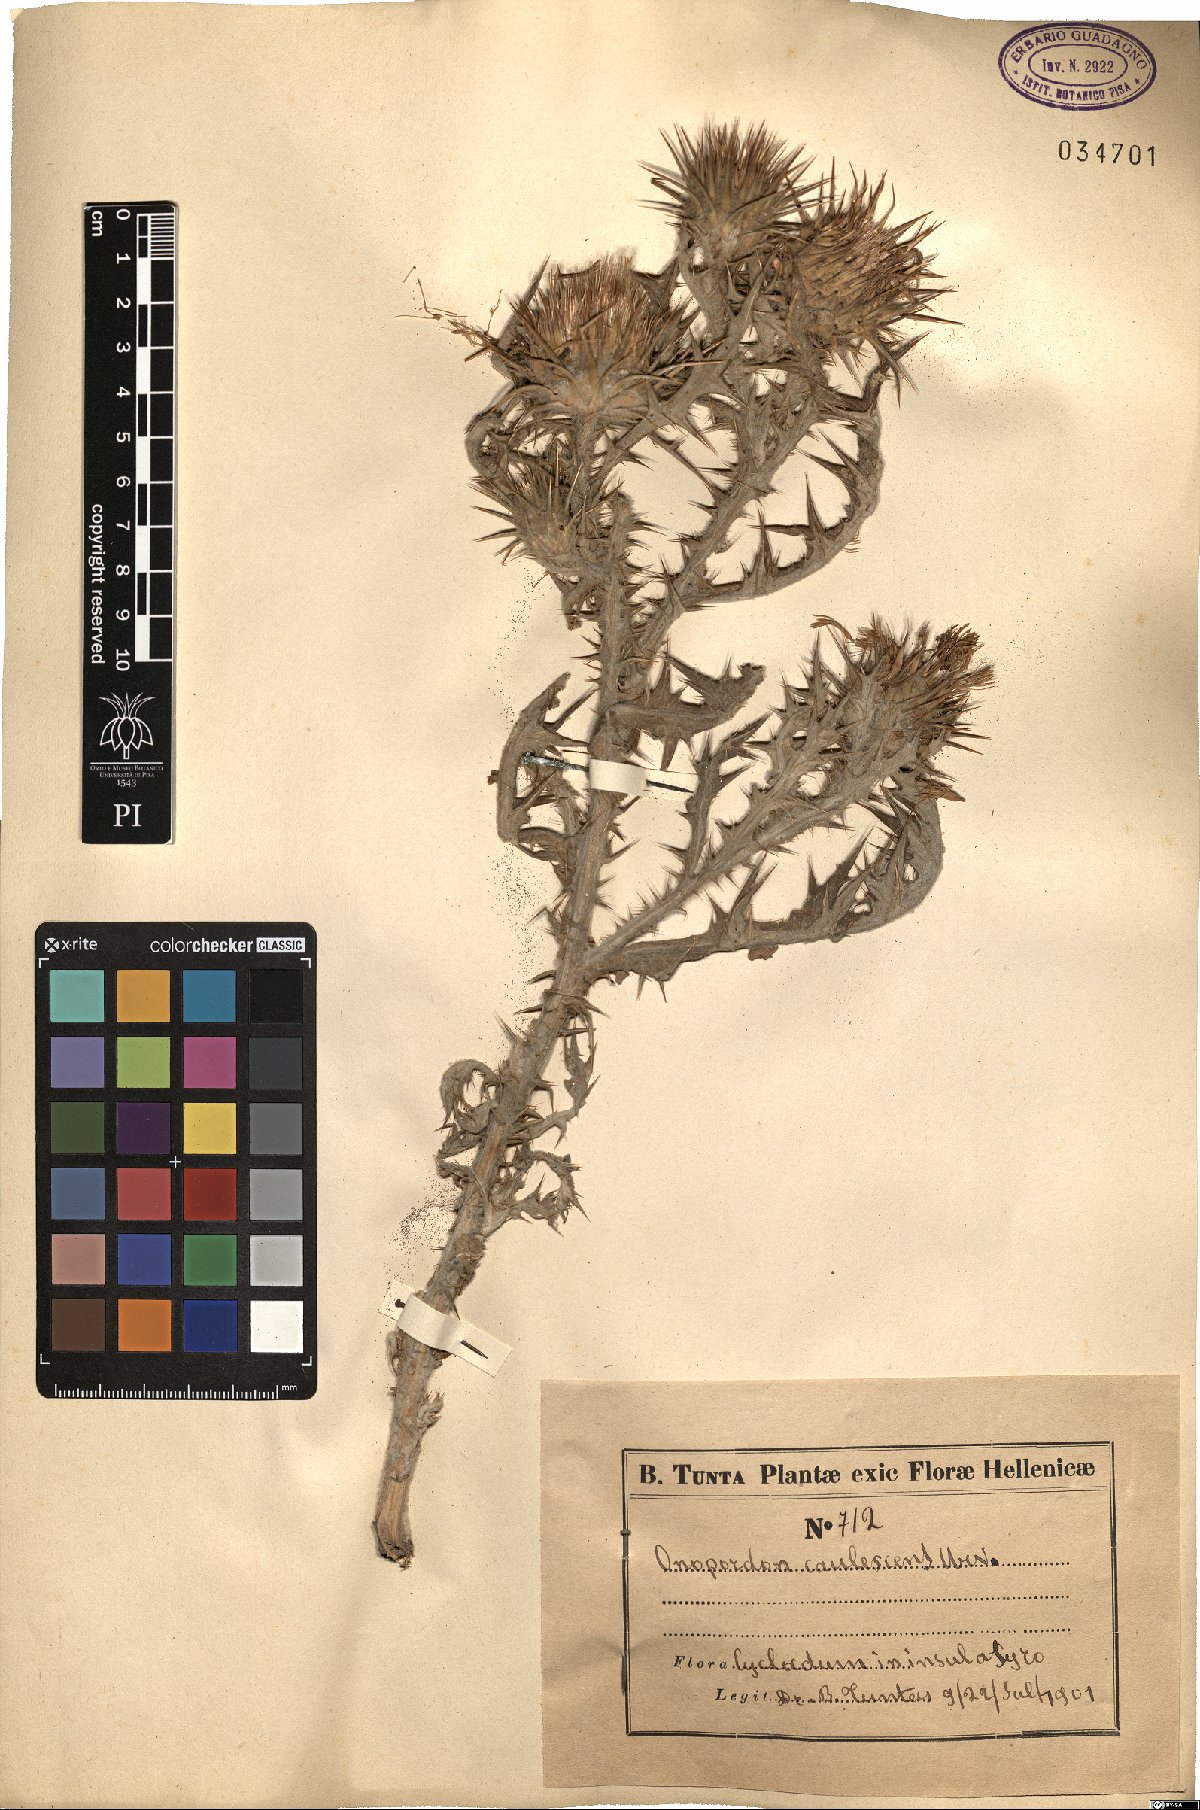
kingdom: Plantae
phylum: Tracheophyta
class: Magnoliopsida
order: Asterales
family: Asteraceae
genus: Onopordum
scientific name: Onopordum caulescens
